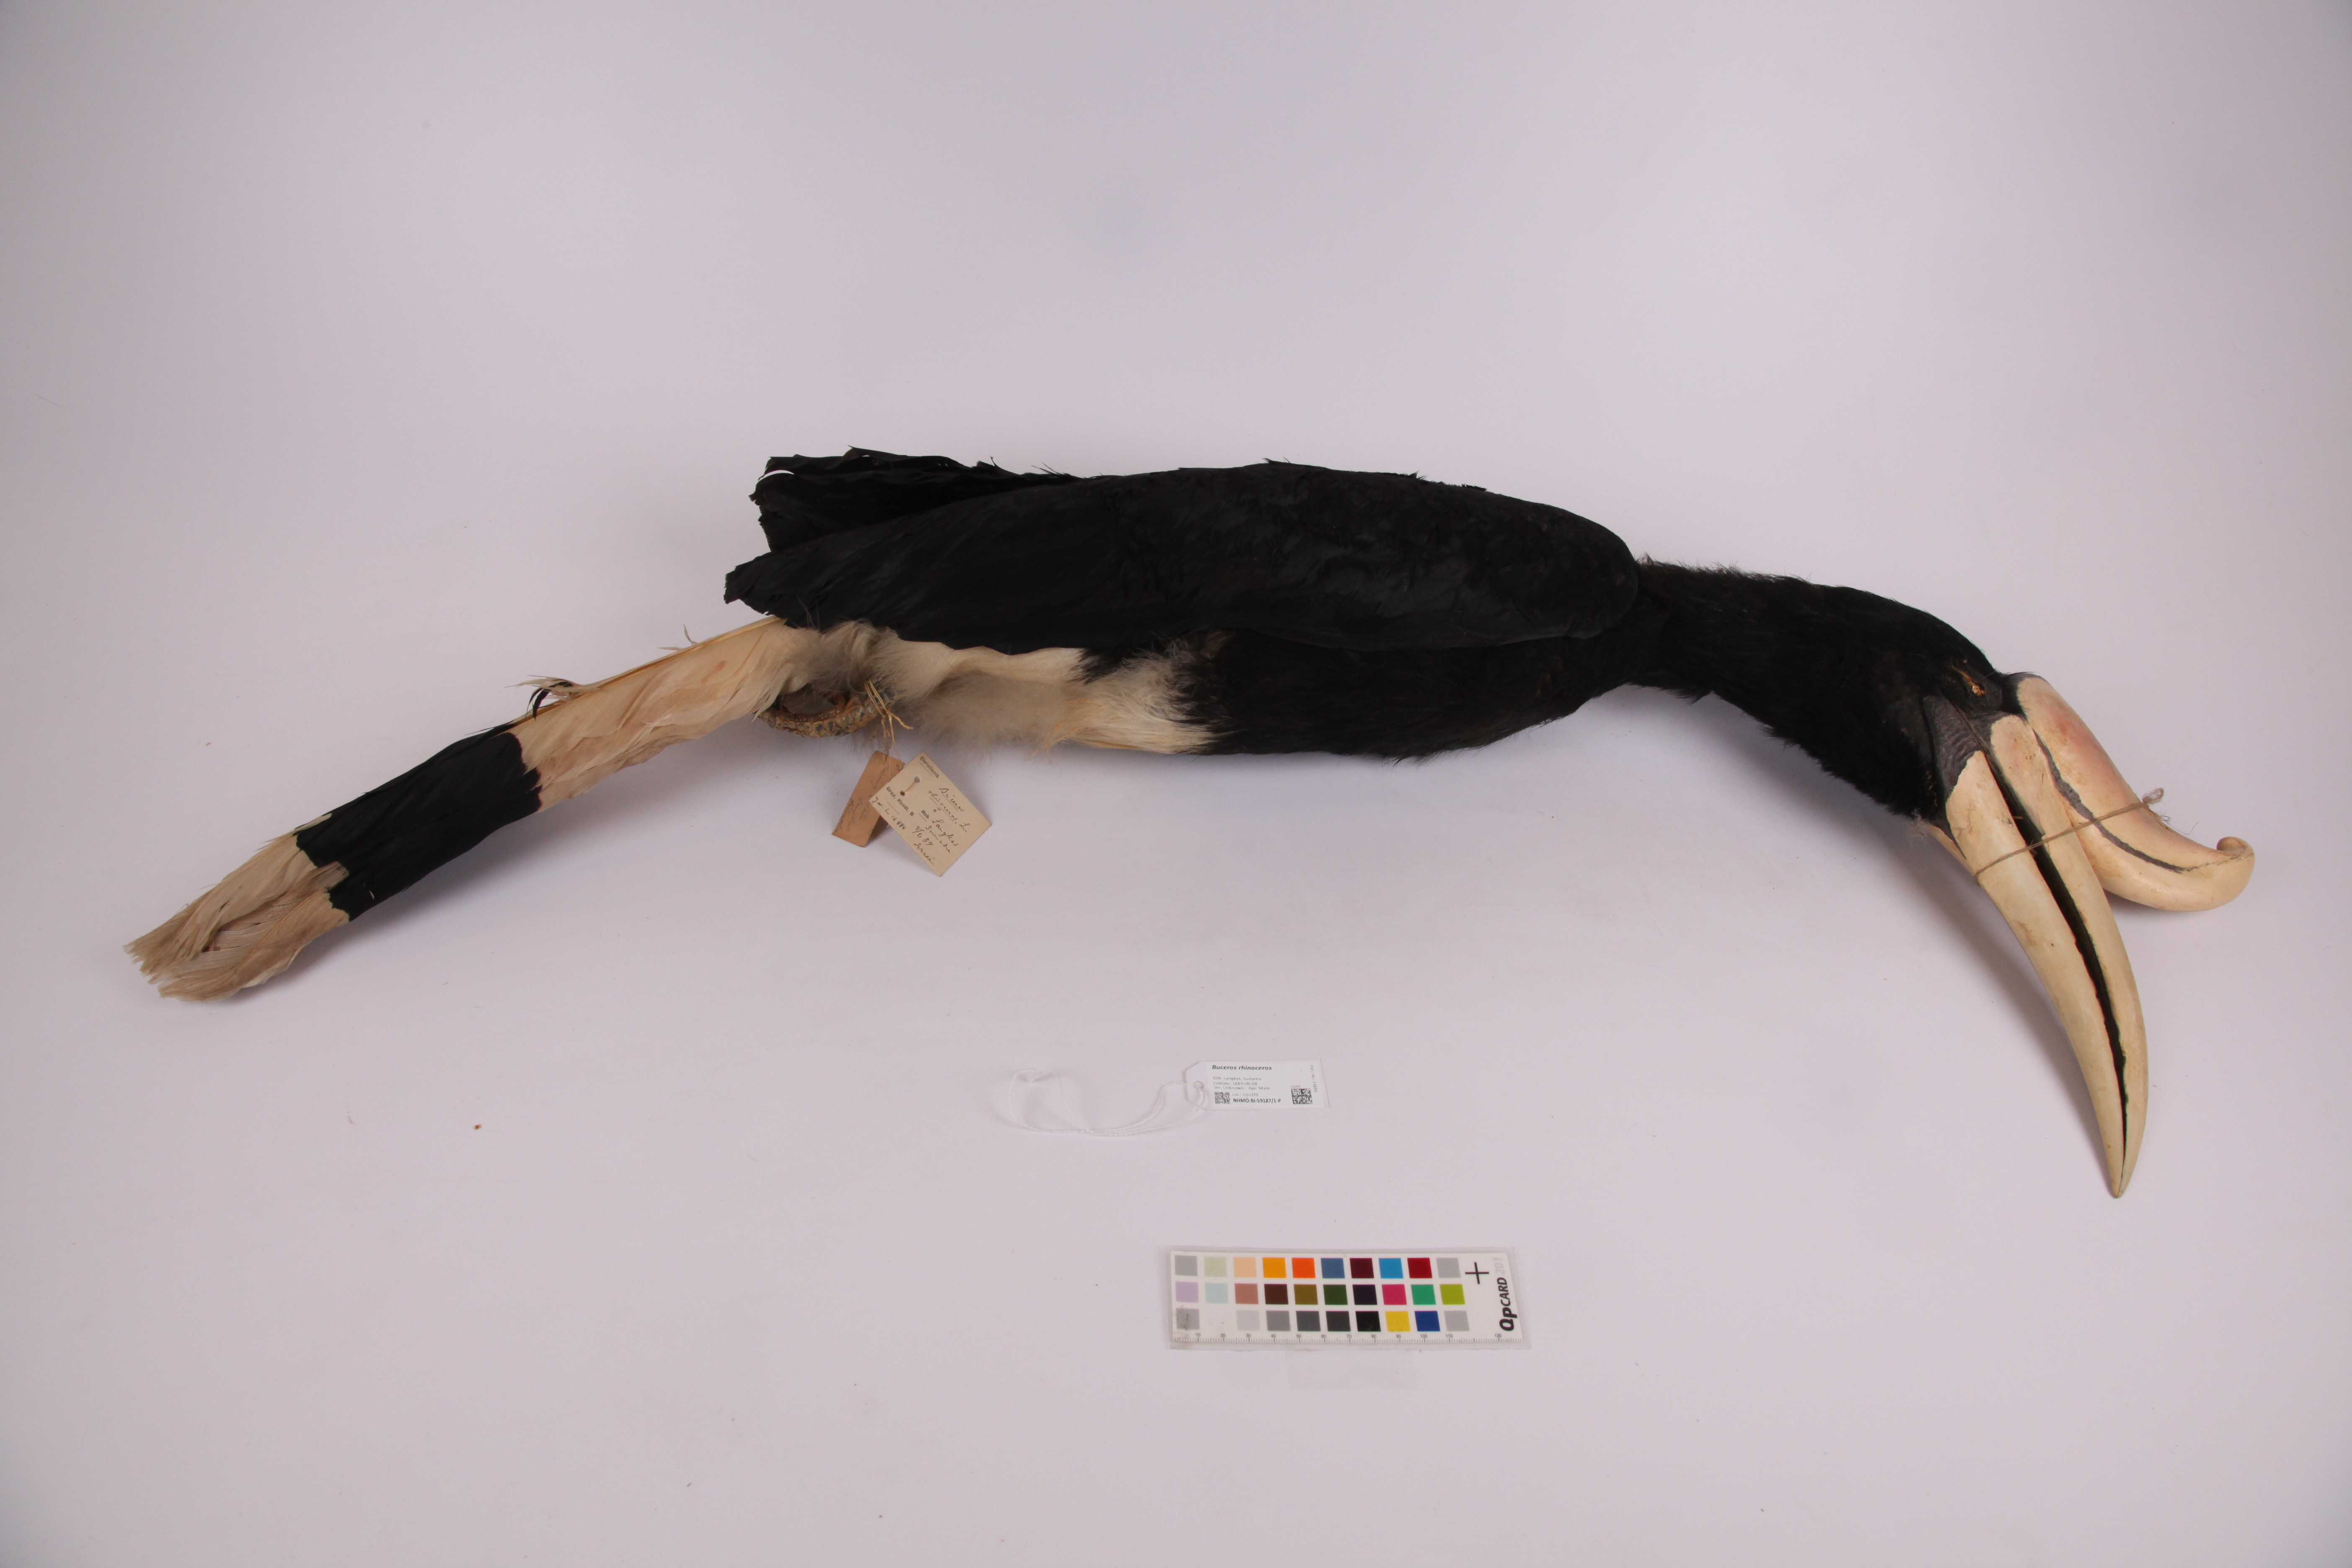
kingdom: Animalia
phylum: Chordata
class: Aves
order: Bucerotiformes
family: Bucerotidae
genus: Buceros
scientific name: Buceros rhinoceros
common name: Rhinoceros hornbill
